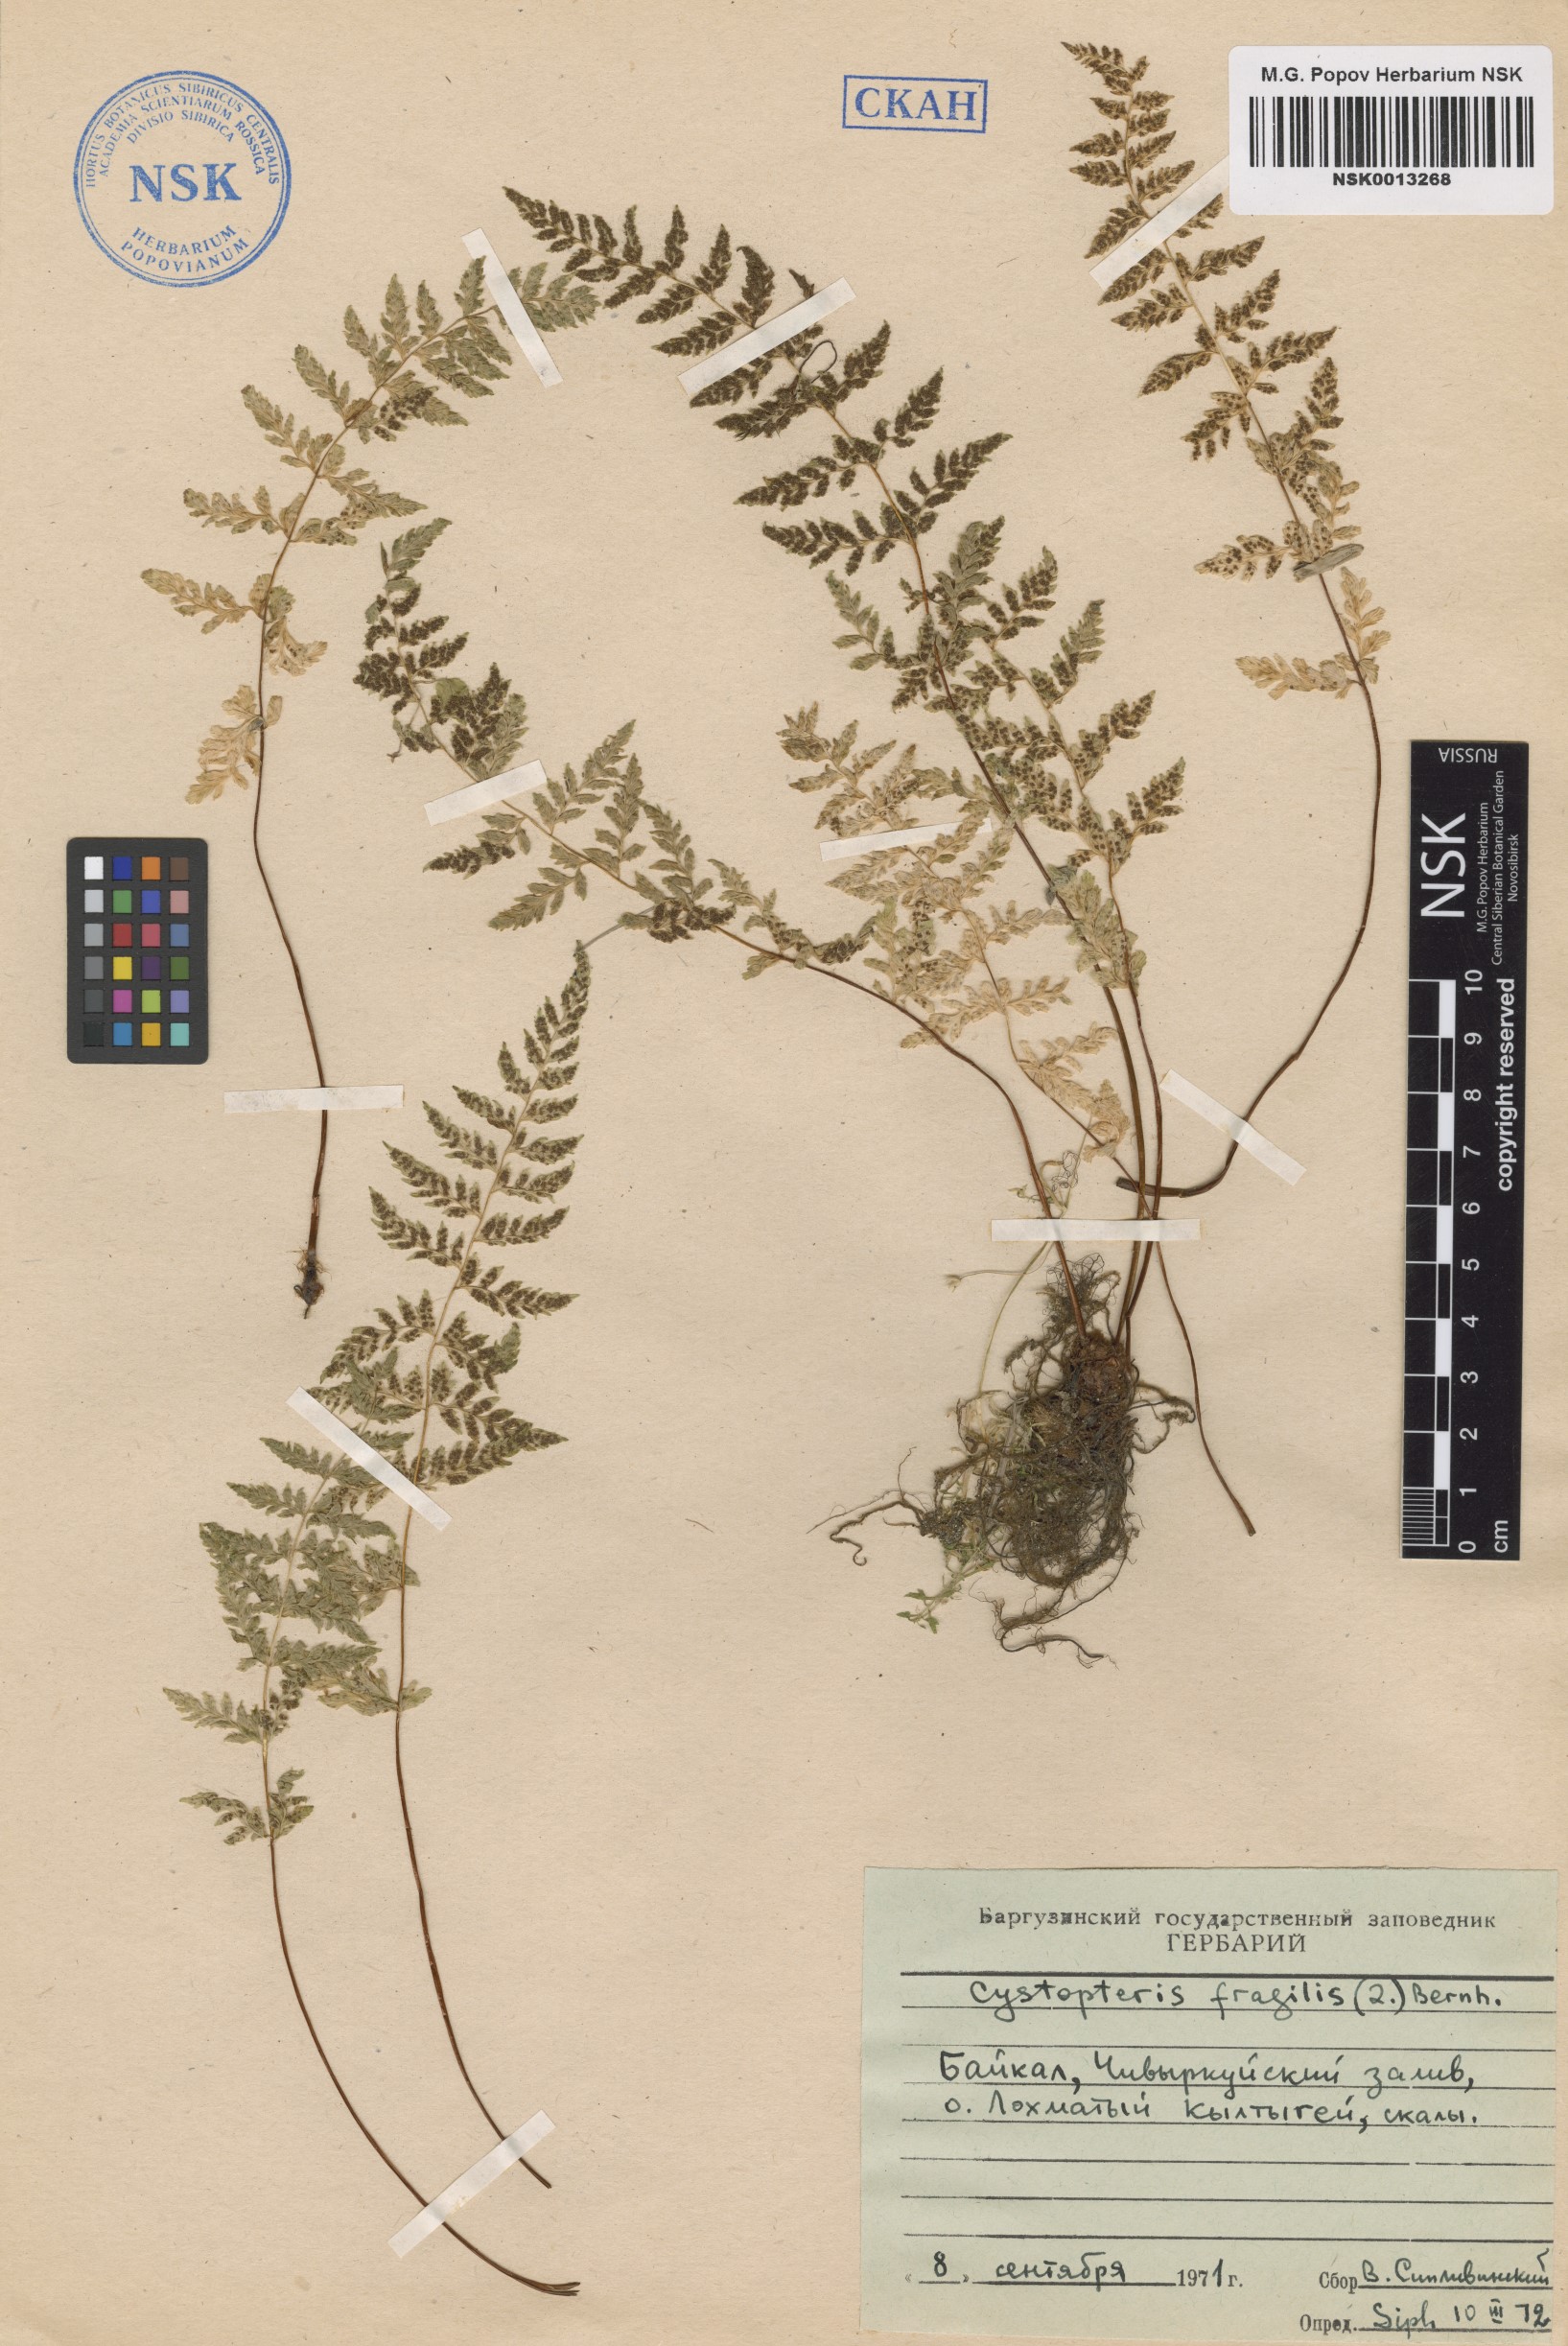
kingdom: Plantae
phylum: Tracheophyta
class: Polypodiopsida
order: Polypodiales
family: Cystopteridaceae
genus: Cystopteris
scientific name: Cystopteris fragilis
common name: Brittle bladder fern
